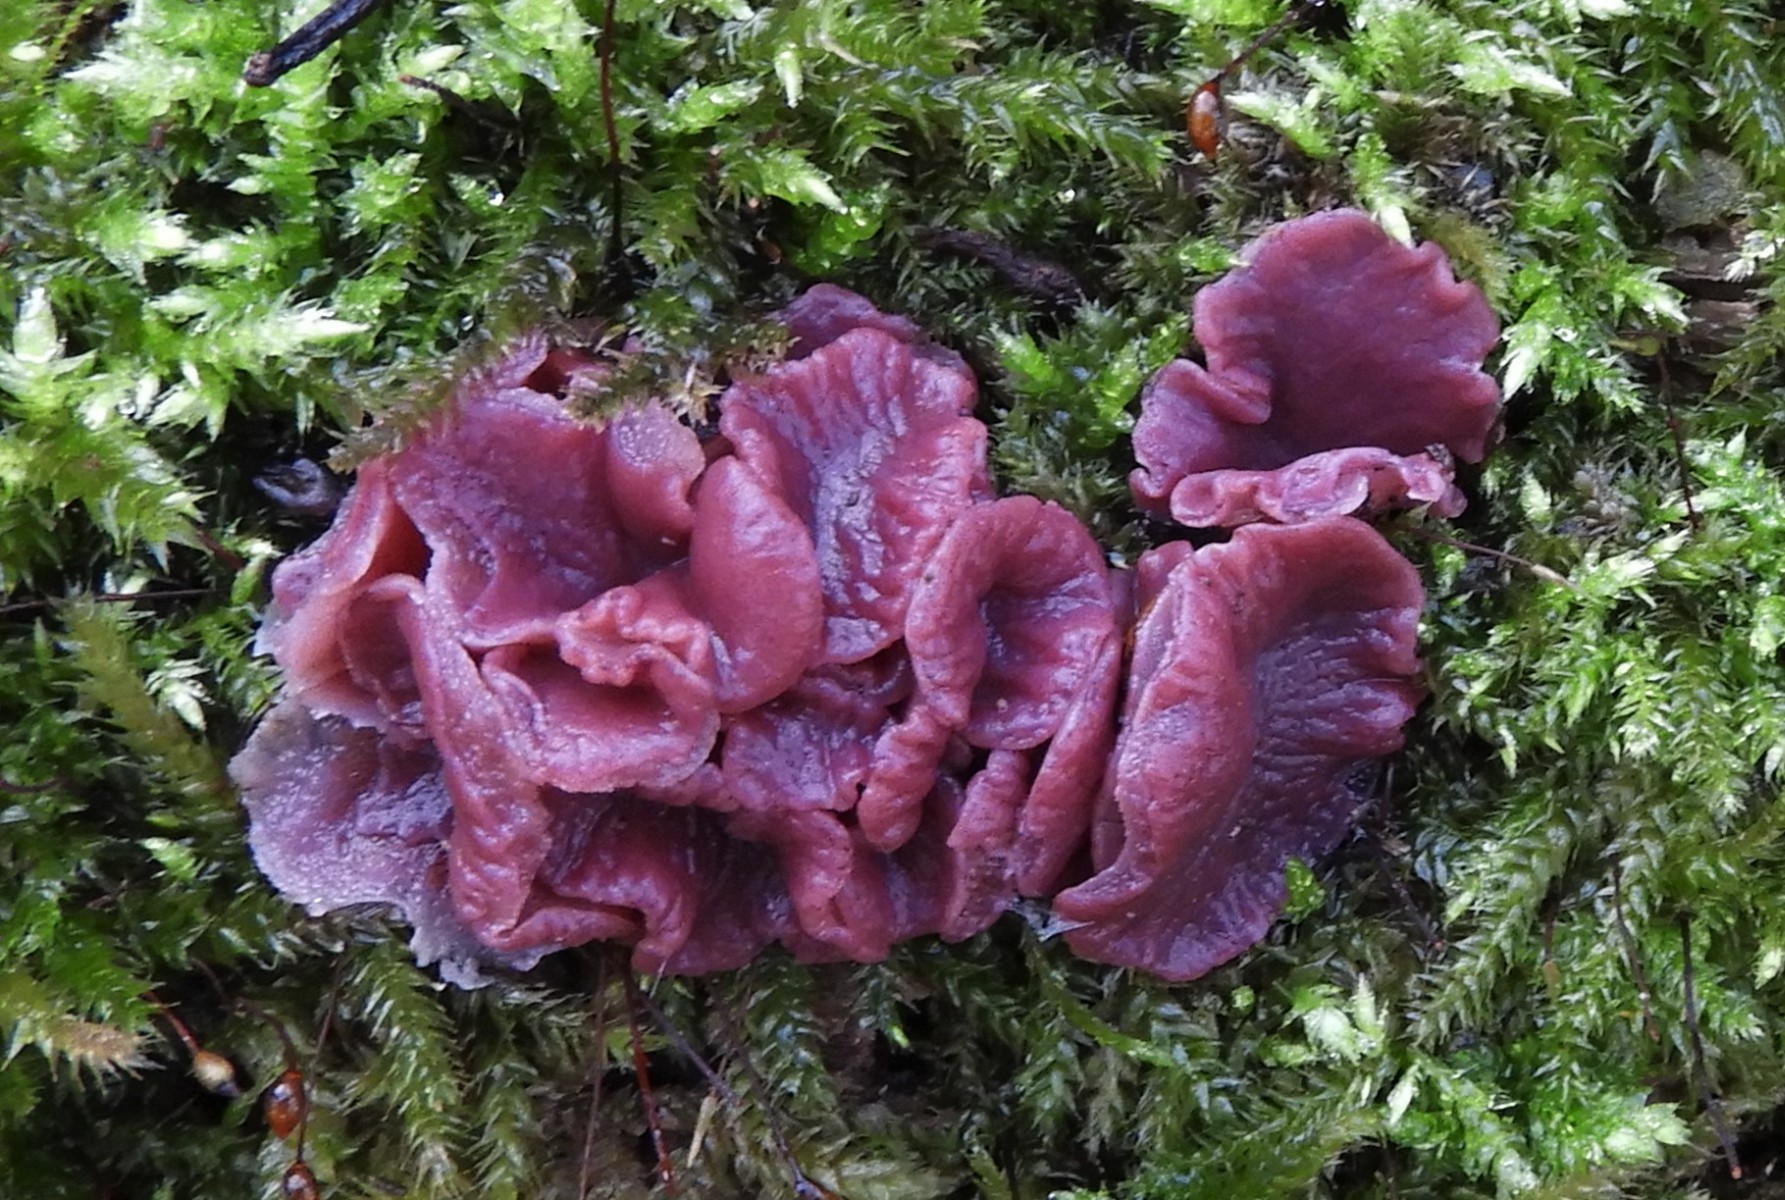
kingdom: Fungi
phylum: Ascomycota
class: Leotiomycetes
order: Helotiales
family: Gelatinodiscaceae
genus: Ascocoryne
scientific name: Ascocoryne cylichnium
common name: stor sejskive
